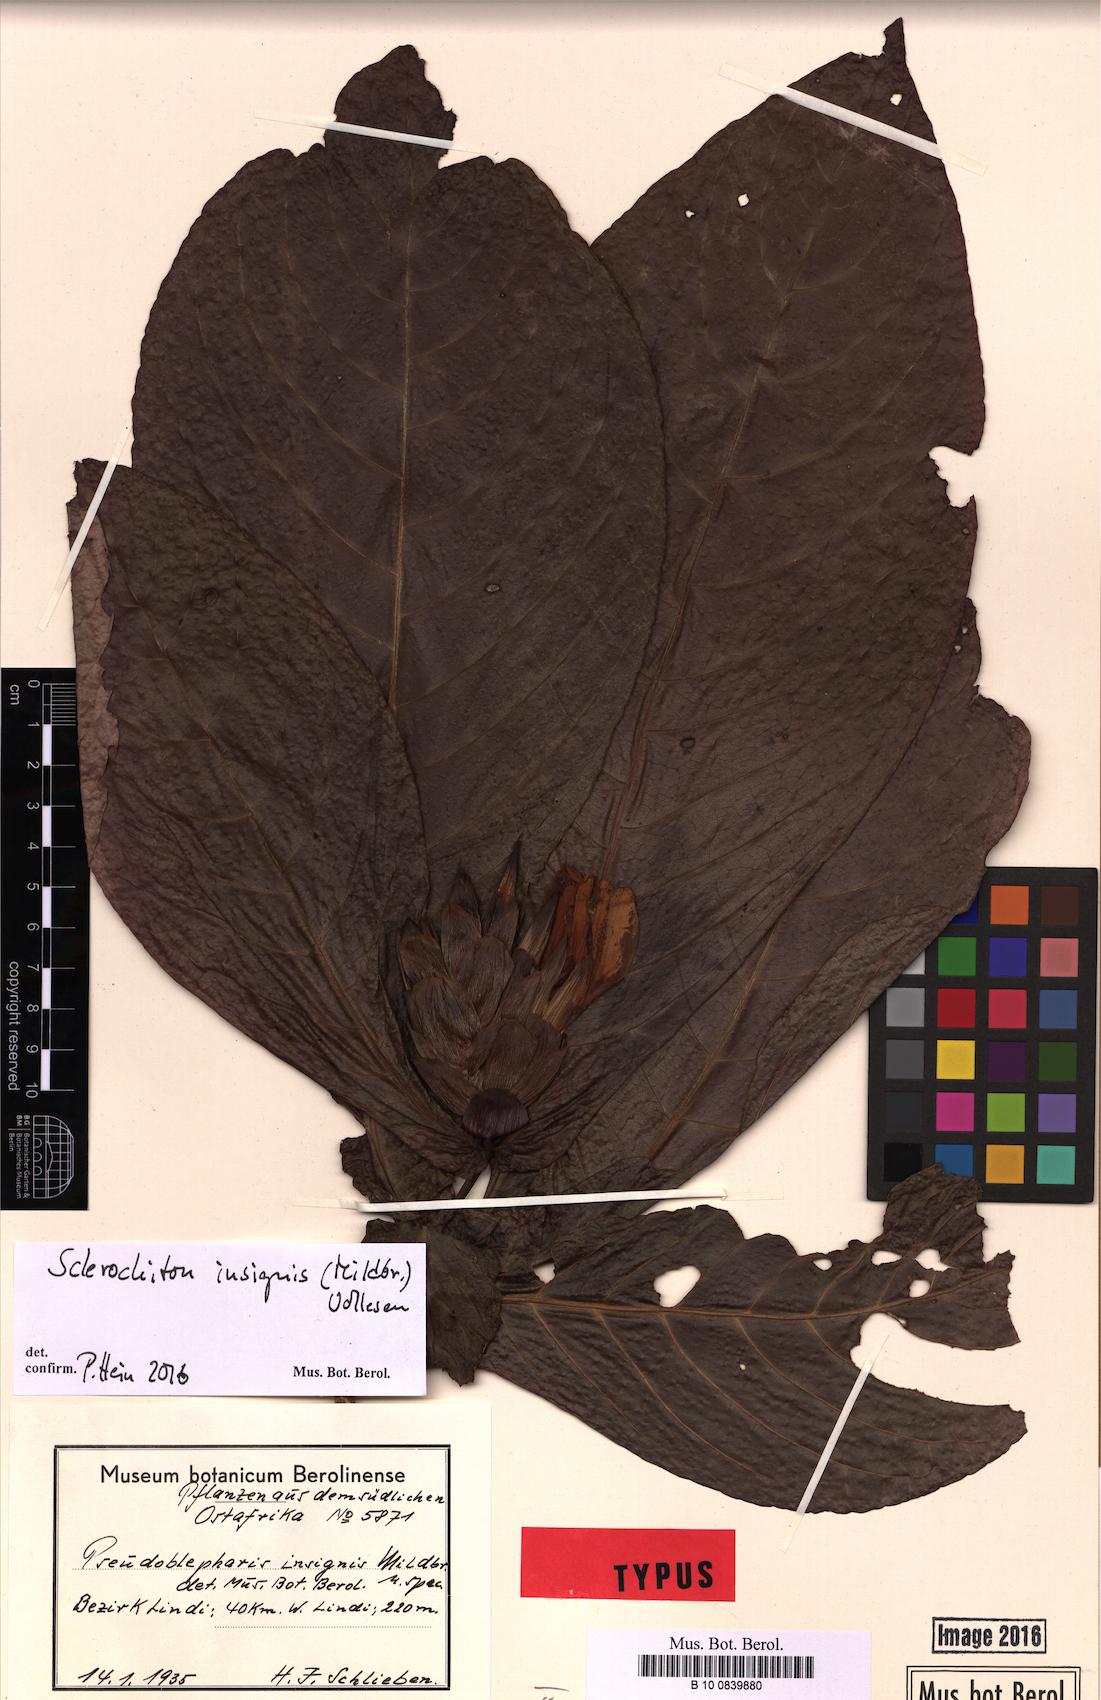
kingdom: Plantae
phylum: Tracheophyta
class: Magnoliopsida
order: Lamiales
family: Acanthaceae
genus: Sclerochiton
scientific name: Sclerochiton insignis
